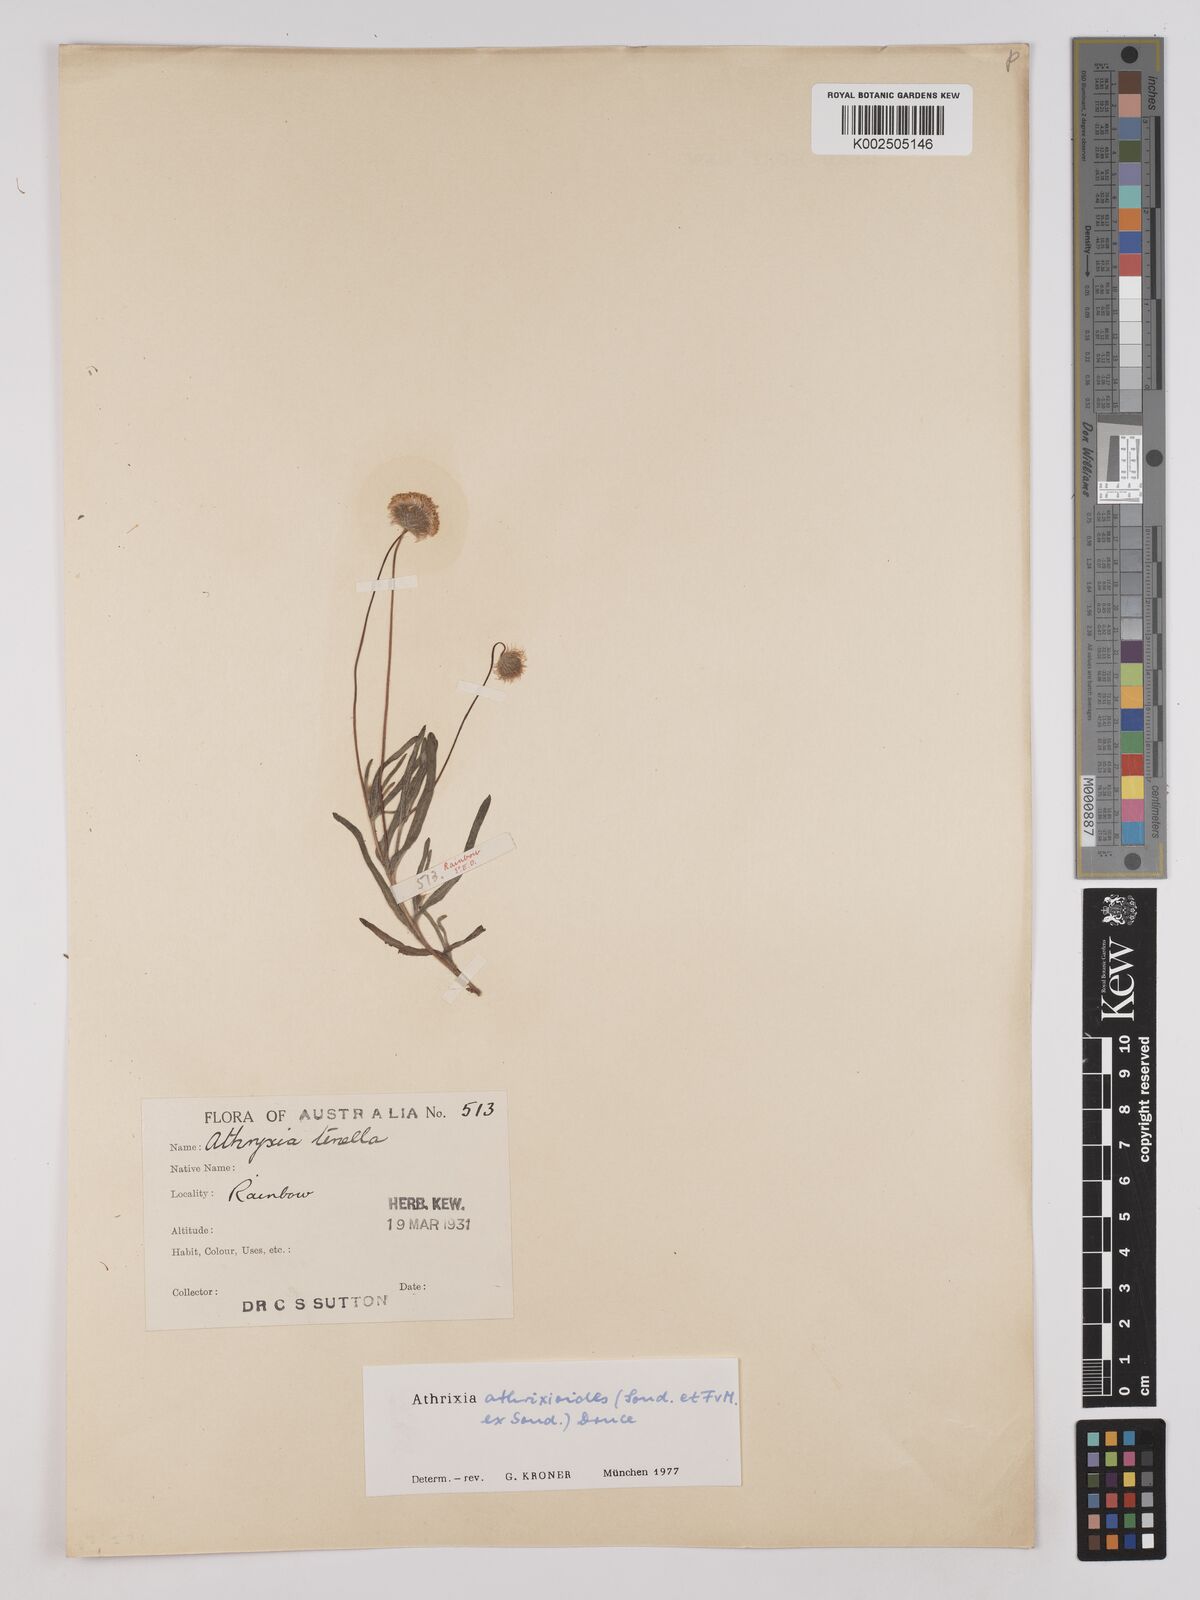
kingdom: Plantae
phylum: Tracheophyta
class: Magnoliopsida
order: Asterales
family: Asteraceae
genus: Asteridea
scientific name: Asteridea athrixioides
